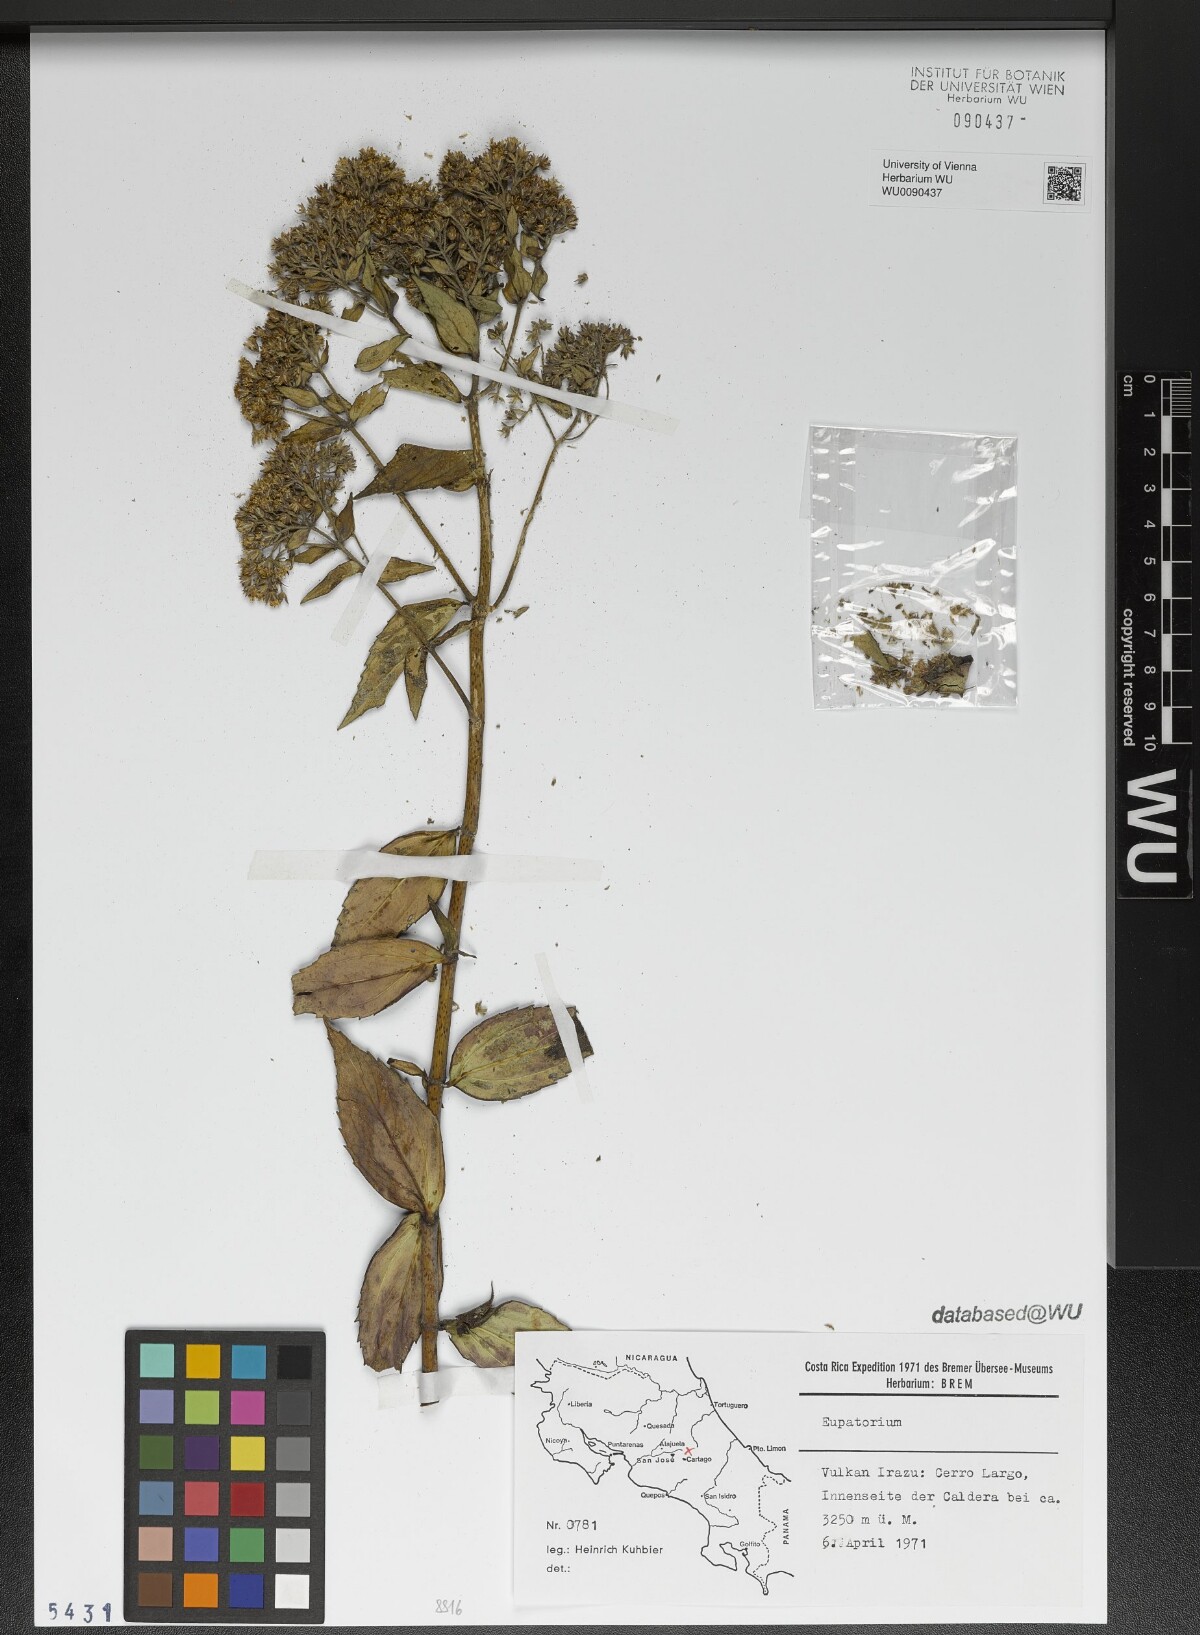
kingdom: Plantae
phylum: Tracheophyta
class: Magnoliopsida
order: Asterales
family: Asteraceae
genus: Eupatorium
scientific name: Eupatorium
